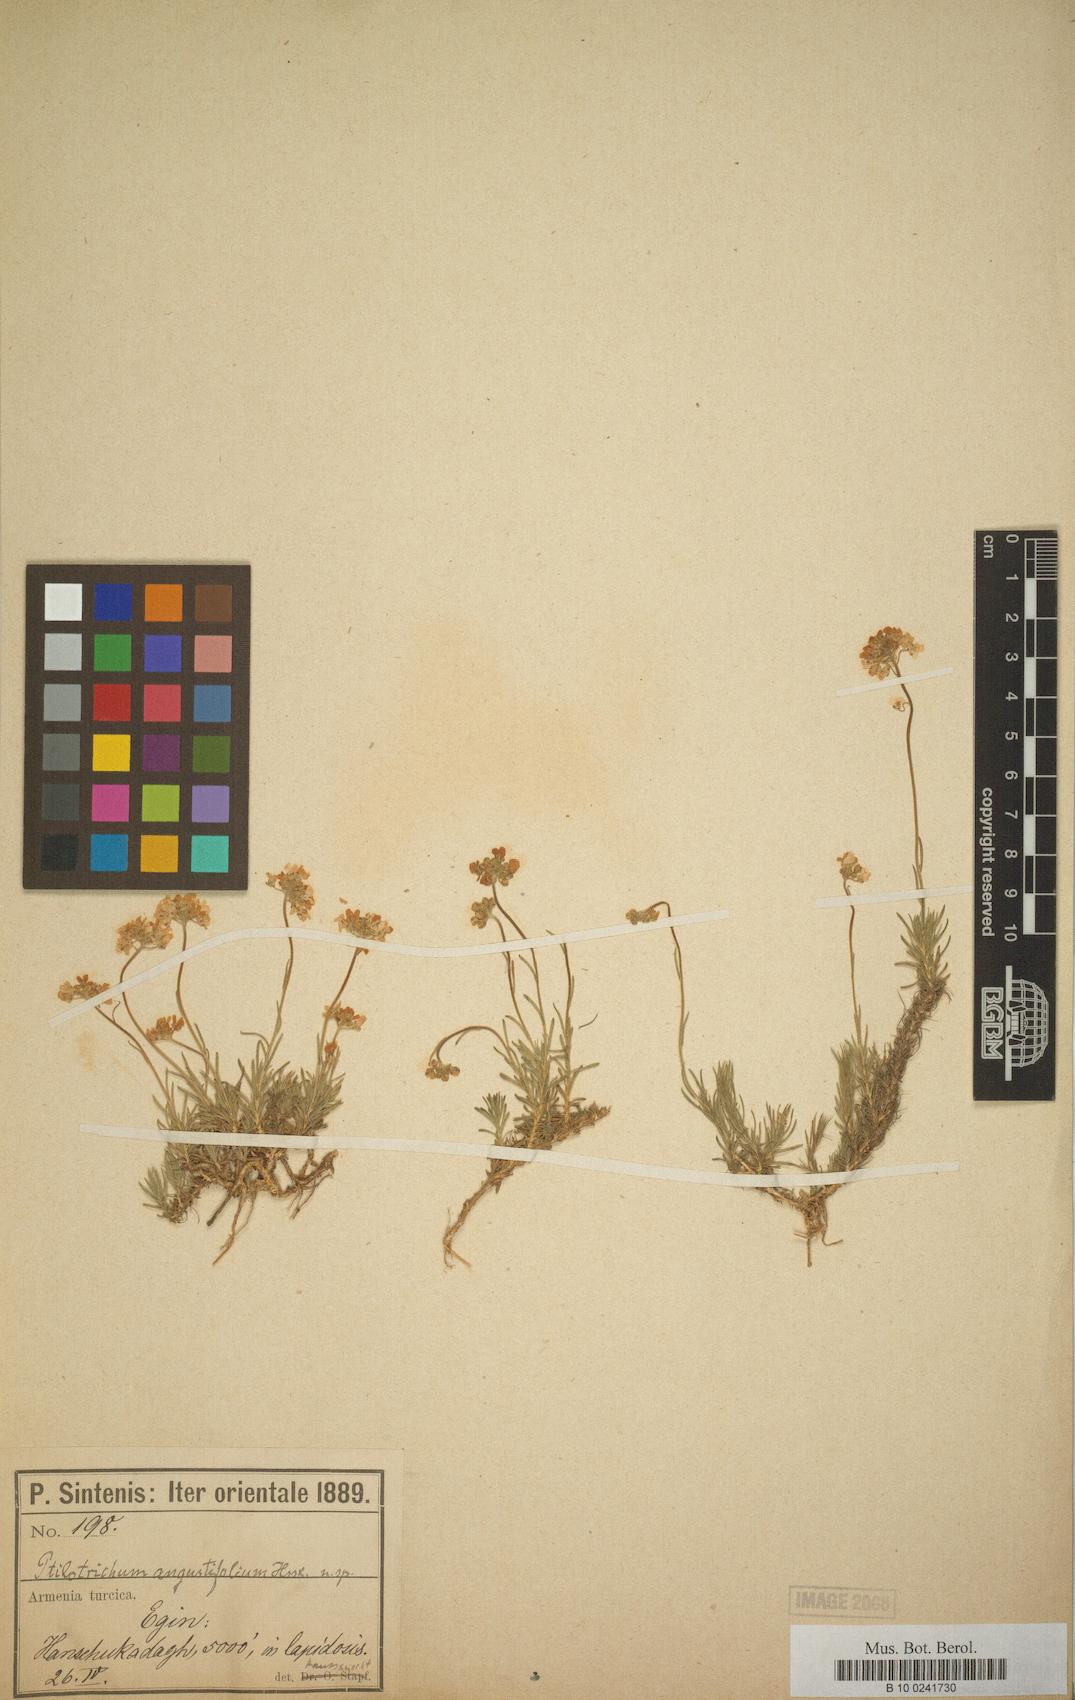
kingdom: Plantae
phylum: Tracheophyta
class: Magnoliopsida
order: Brassicales
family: Brassicaceae
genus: Bornmuellera
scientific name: Bornmuellera angustifolia
